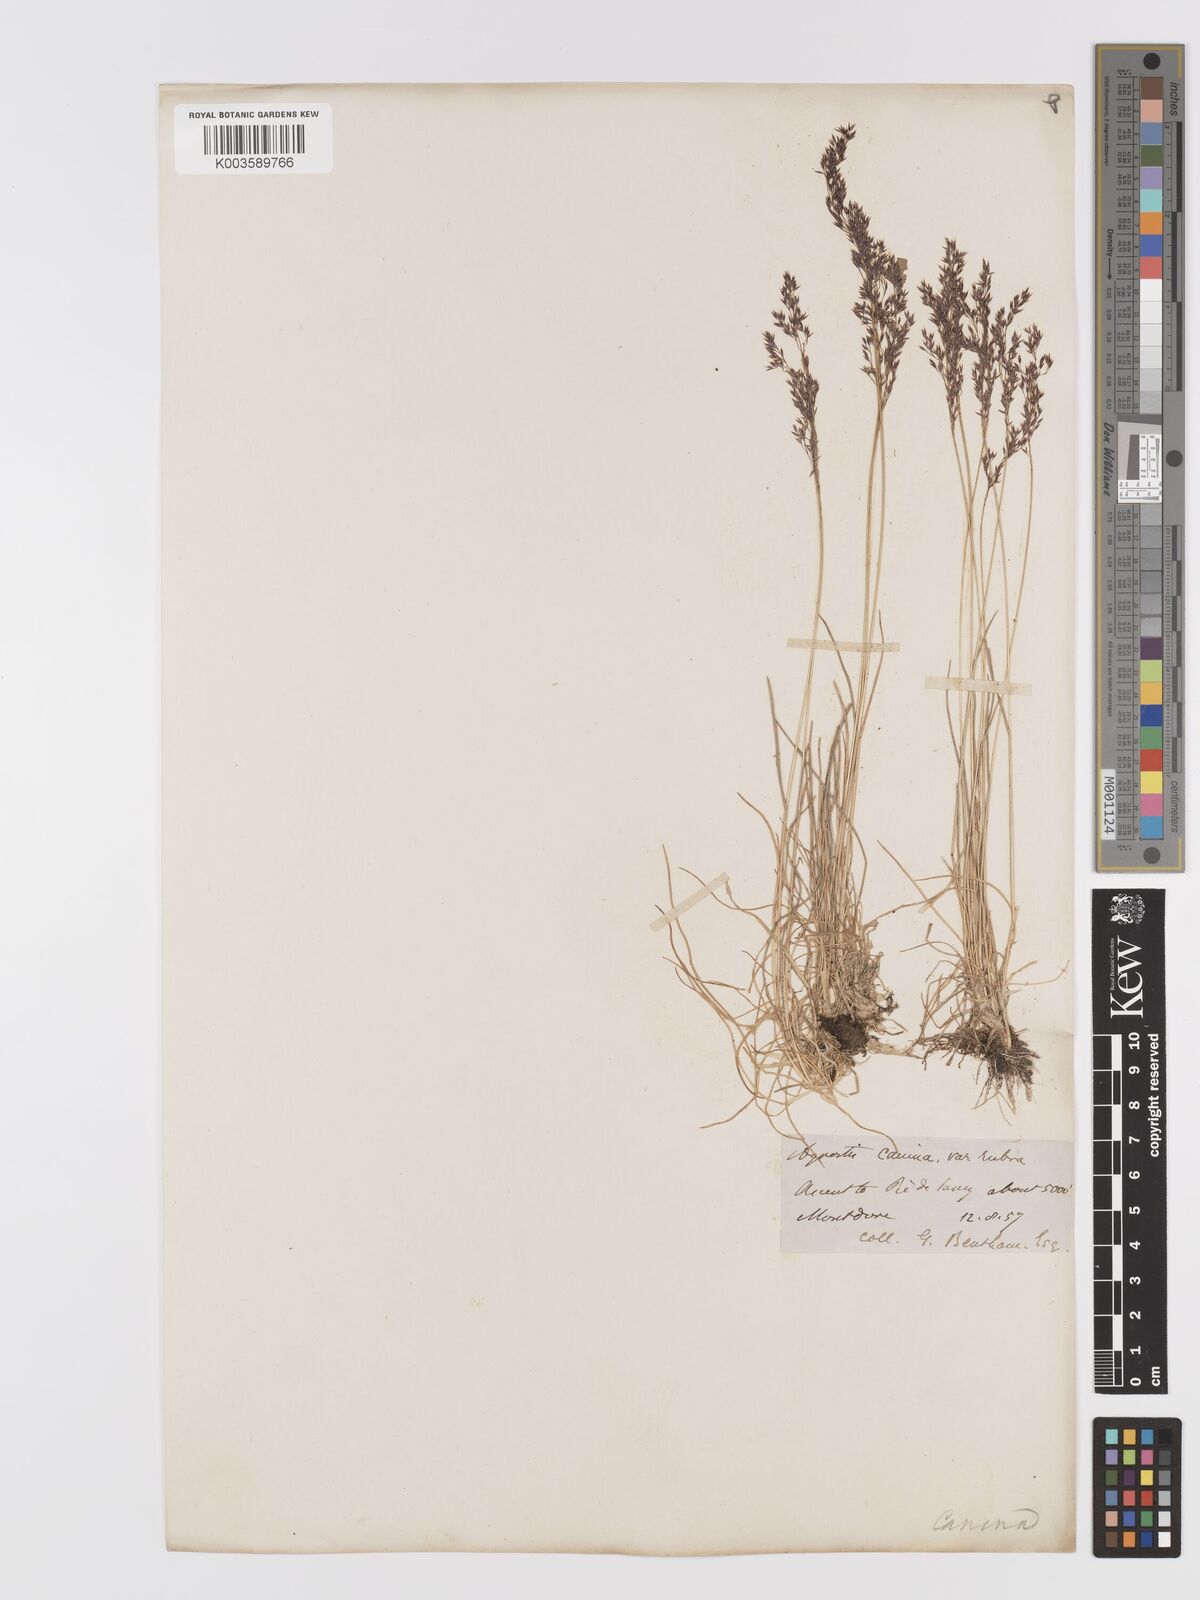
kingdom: Plantae
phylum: Tracheophyta
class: Liliopsida
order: Poales
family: Poaceae
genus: Agrostis
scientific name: Agrostis
